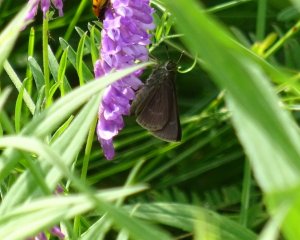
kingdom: Animalia
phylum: Arthropoda
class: Insecta
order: Lepidoptera
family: Hesperiidae
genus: Euphyes
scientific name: Euphyes vestris
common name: Dun Skipper
